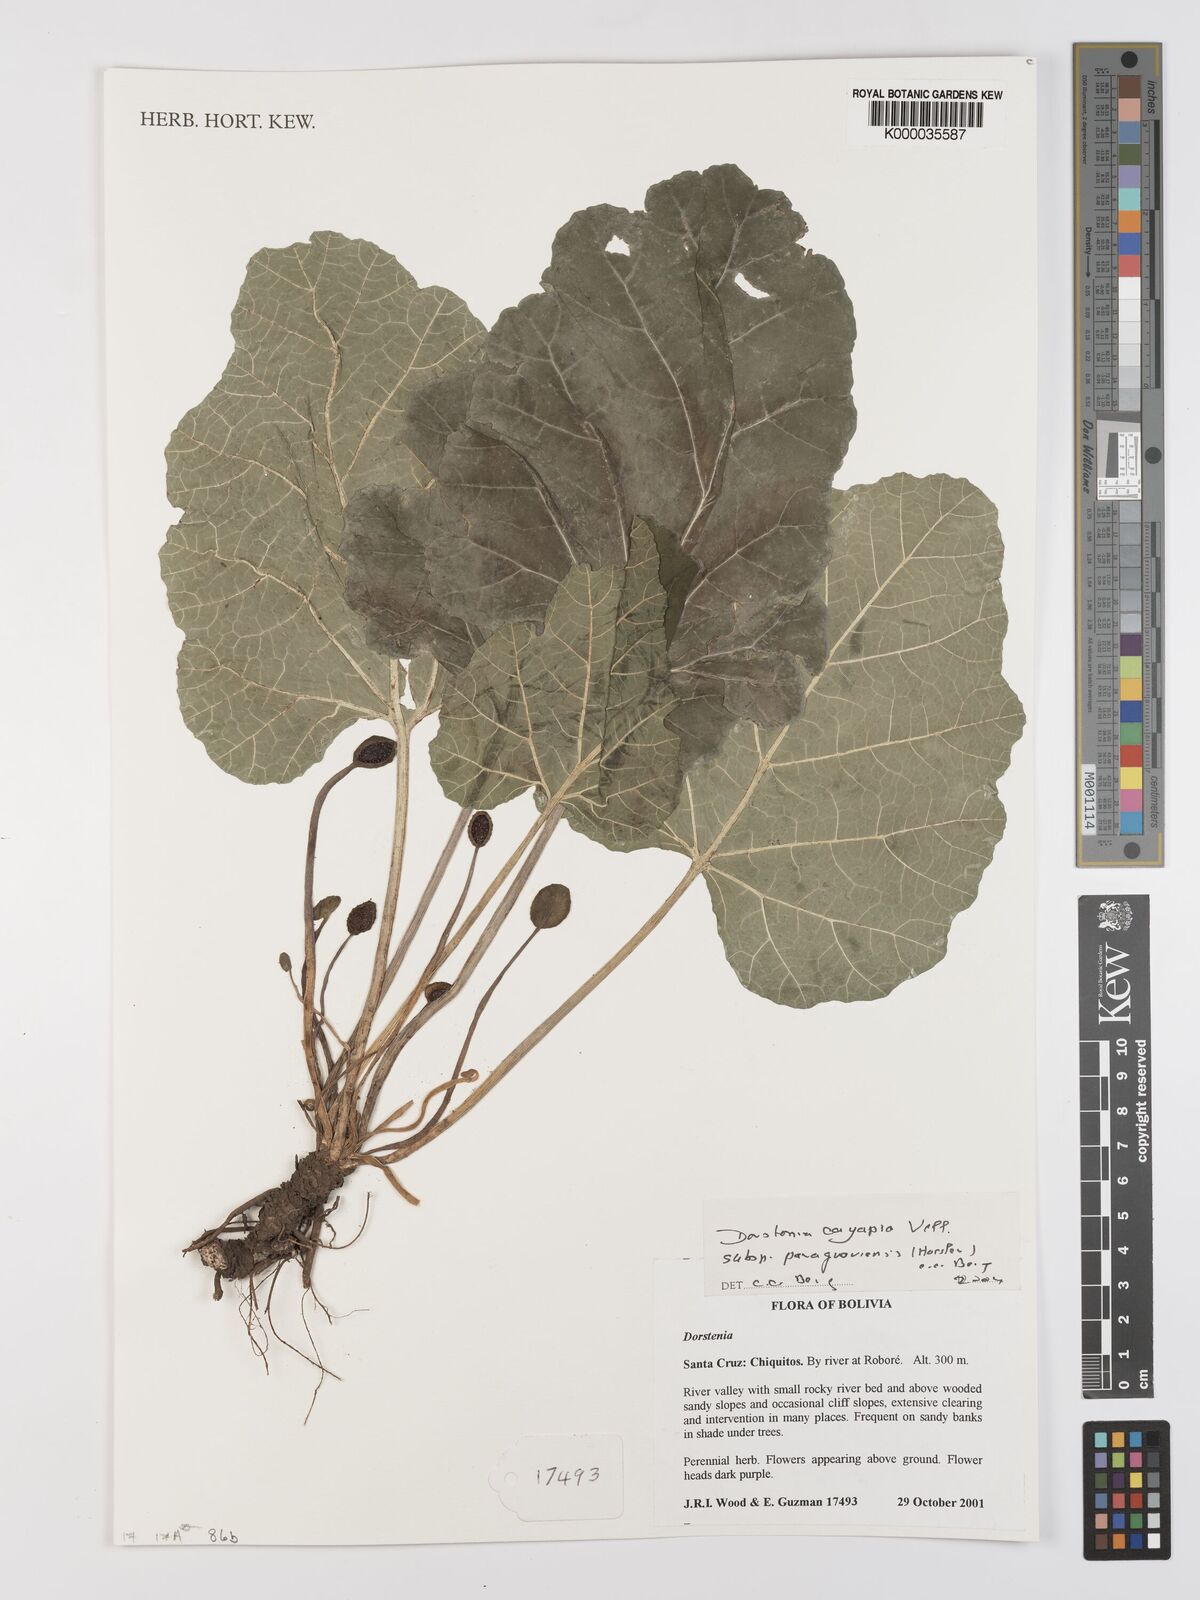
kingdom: Plantae
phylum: Tracheophyta
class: Magnoliopsida
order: Rosales
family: Moraceae
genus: Dorstenia
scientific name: Dorstenia cayapia
